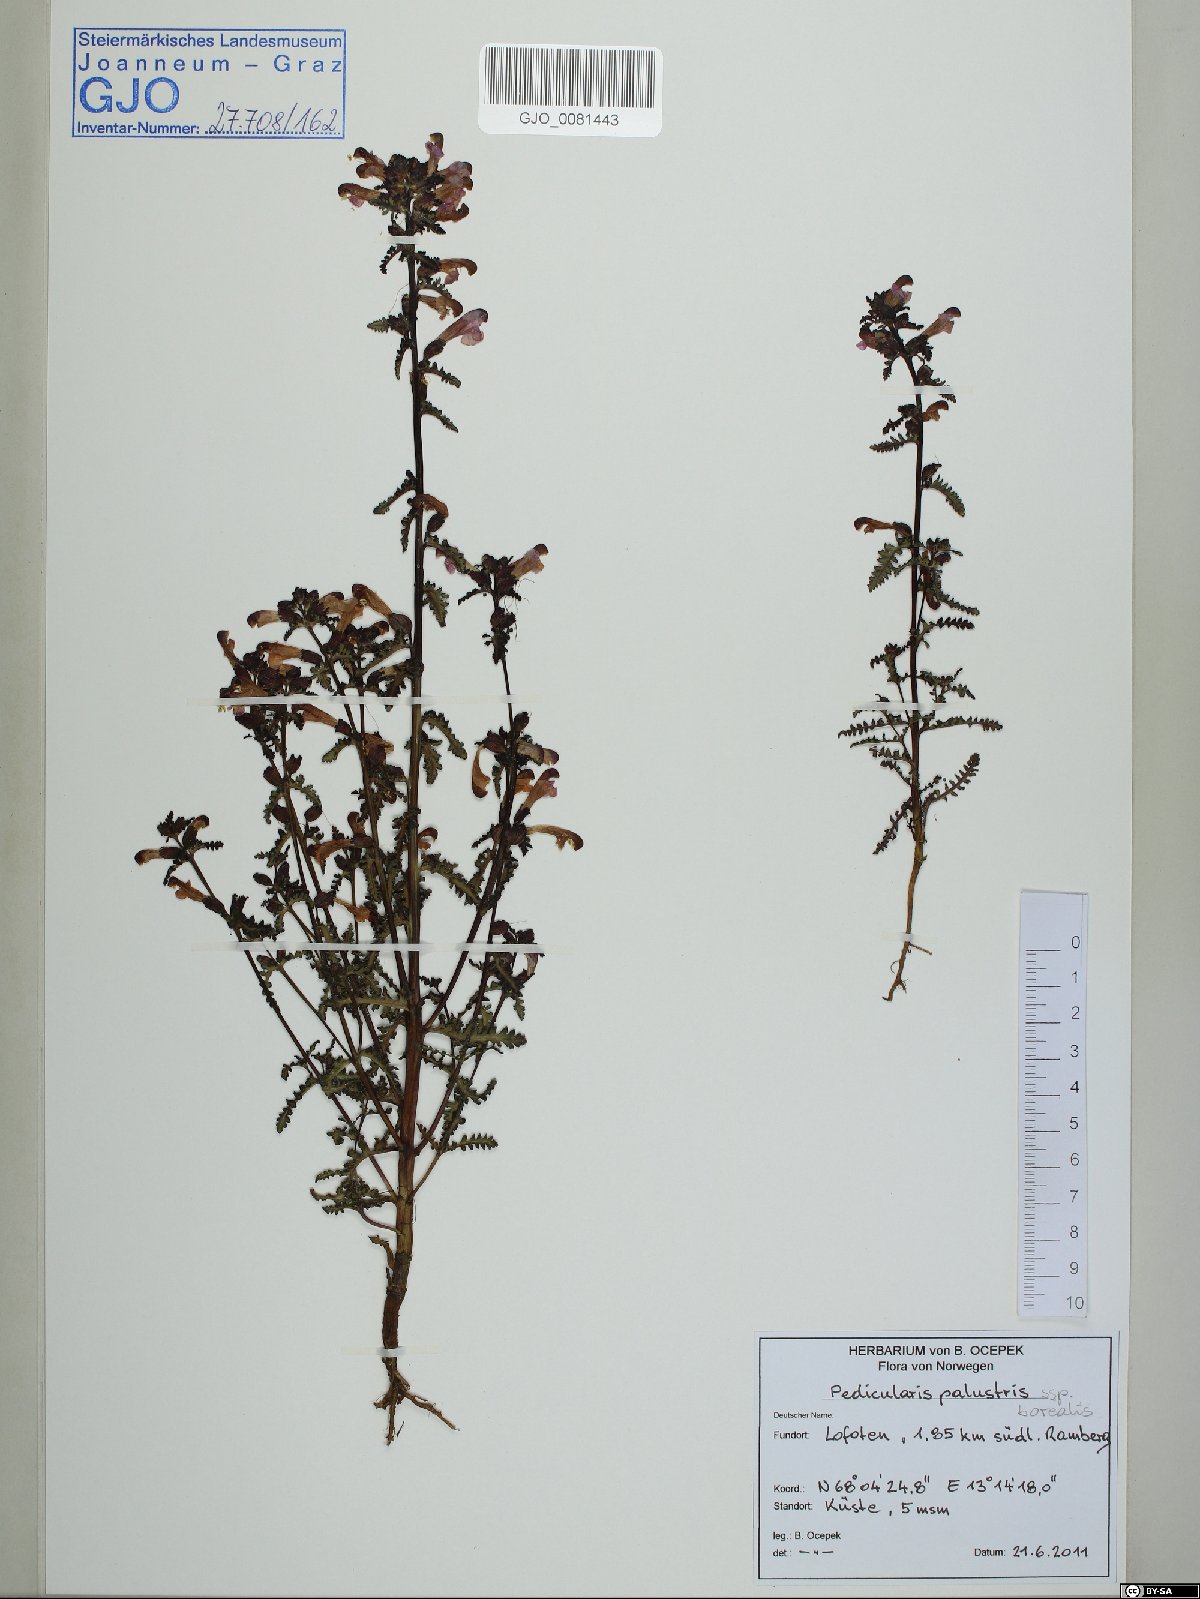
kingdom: Plantae
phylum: Tracheophyta
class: Magnoliopsida
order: Lamiales
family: Orobanchaceae
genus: Pedicularis
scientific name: Pedicularis palustris
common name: Marsh lousewort
